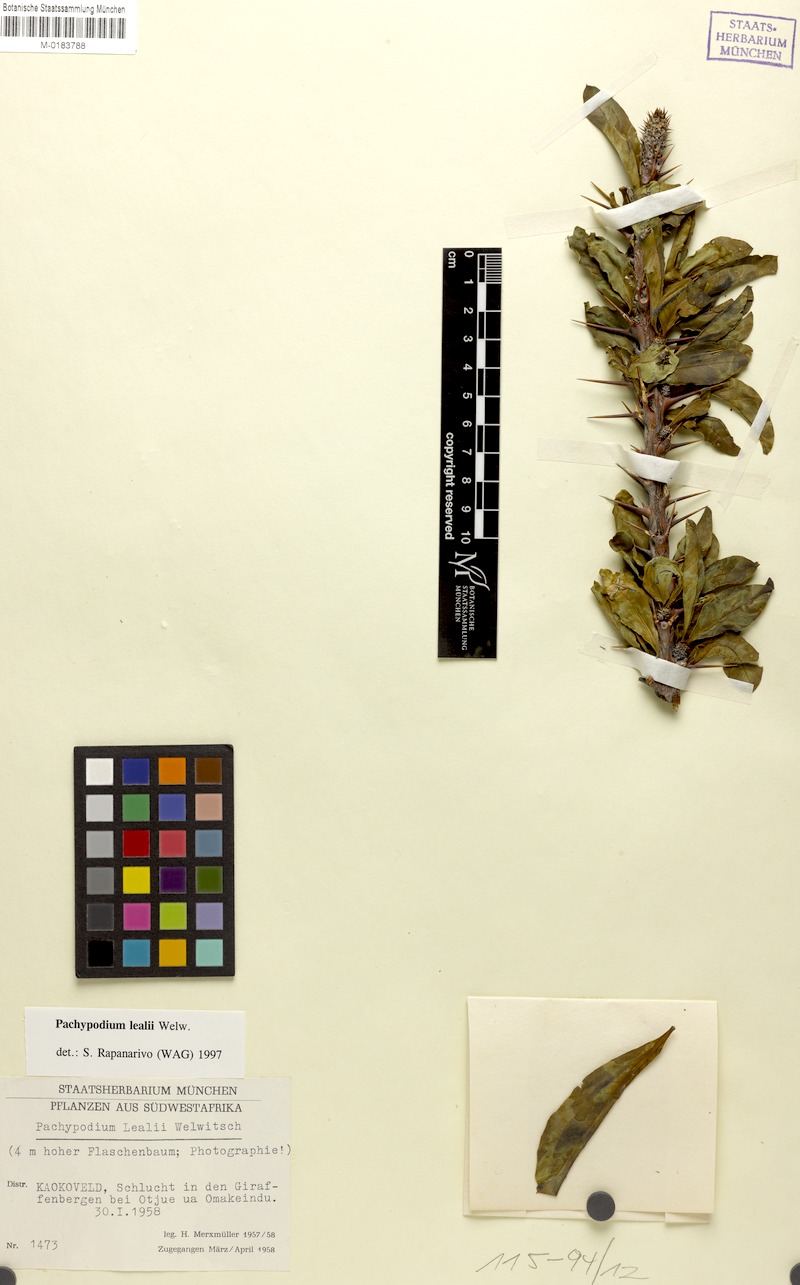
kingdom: Plantae
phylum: Tracheophyta
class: Magnoliopsida
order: Gentianales
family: Apocynaceae
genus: Pachypodium
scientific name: Pachypodium lealii
